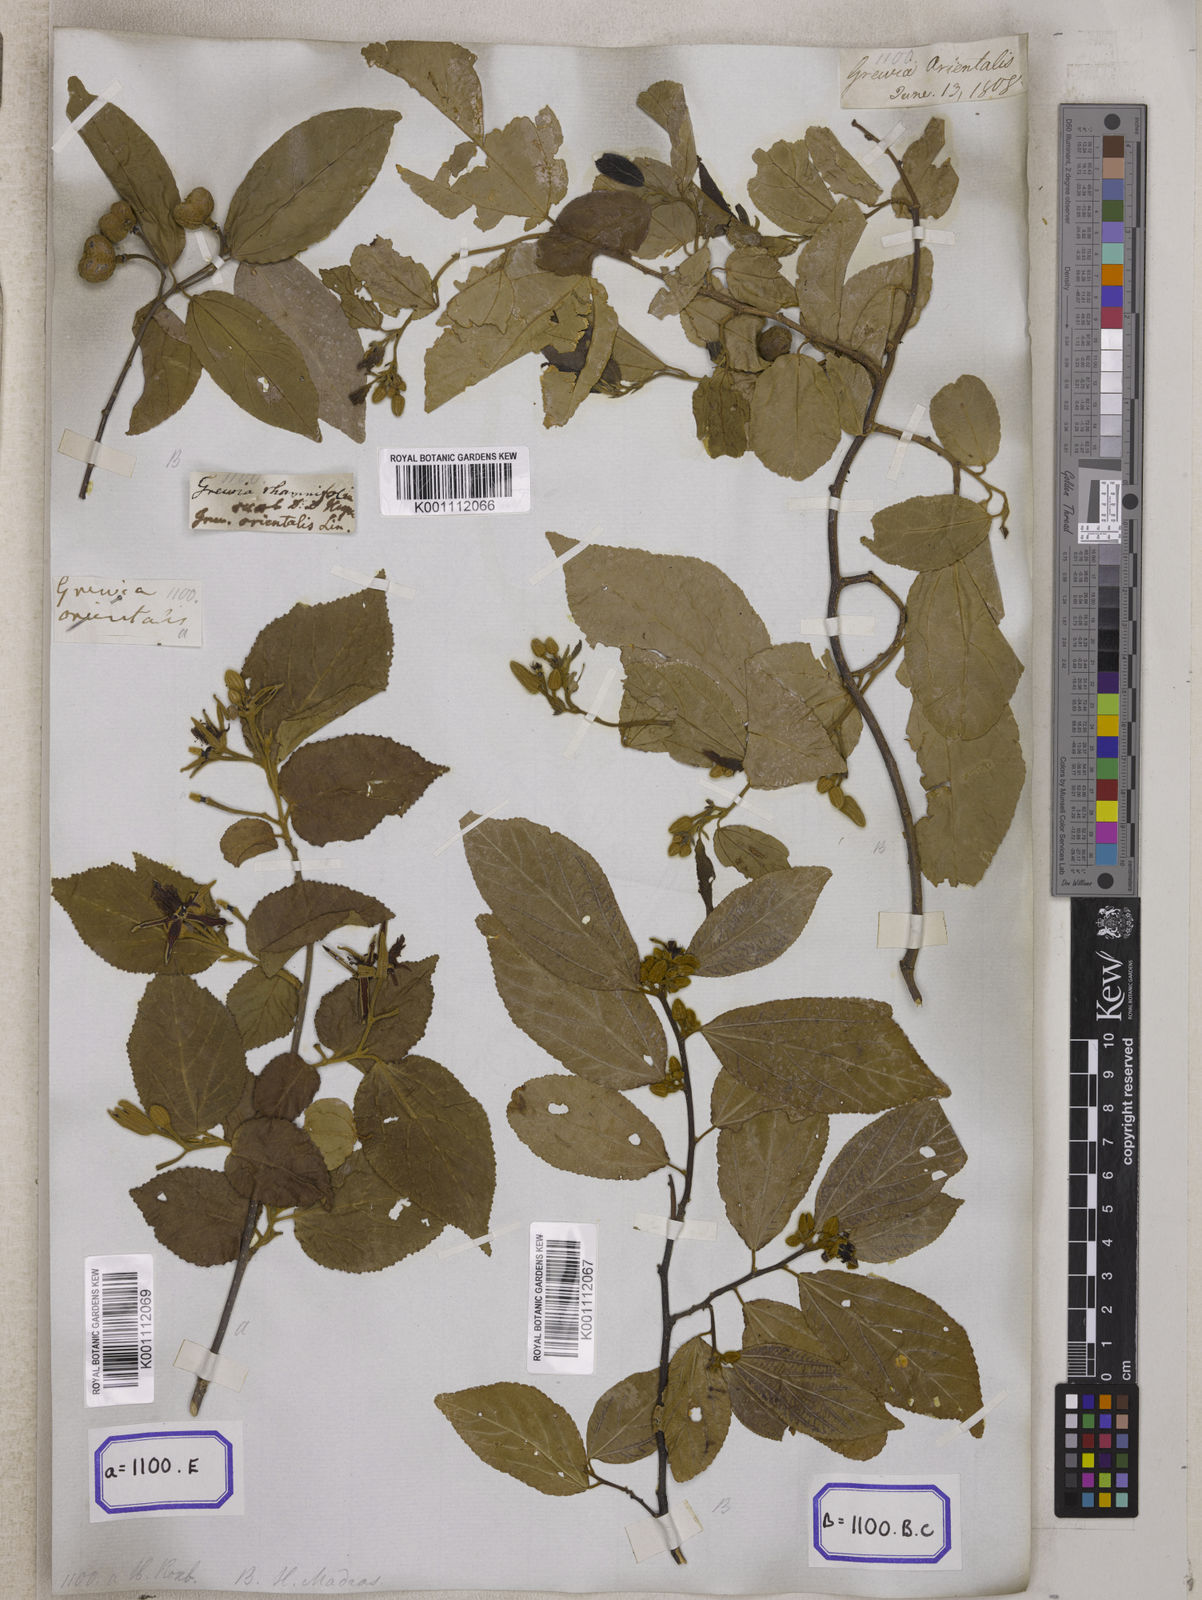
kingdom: Plantae
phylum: Tracheophyta
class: Magnoliopsida
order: Malvales
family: Malvaceae
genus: Grewia
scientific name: Grewia orientalis
